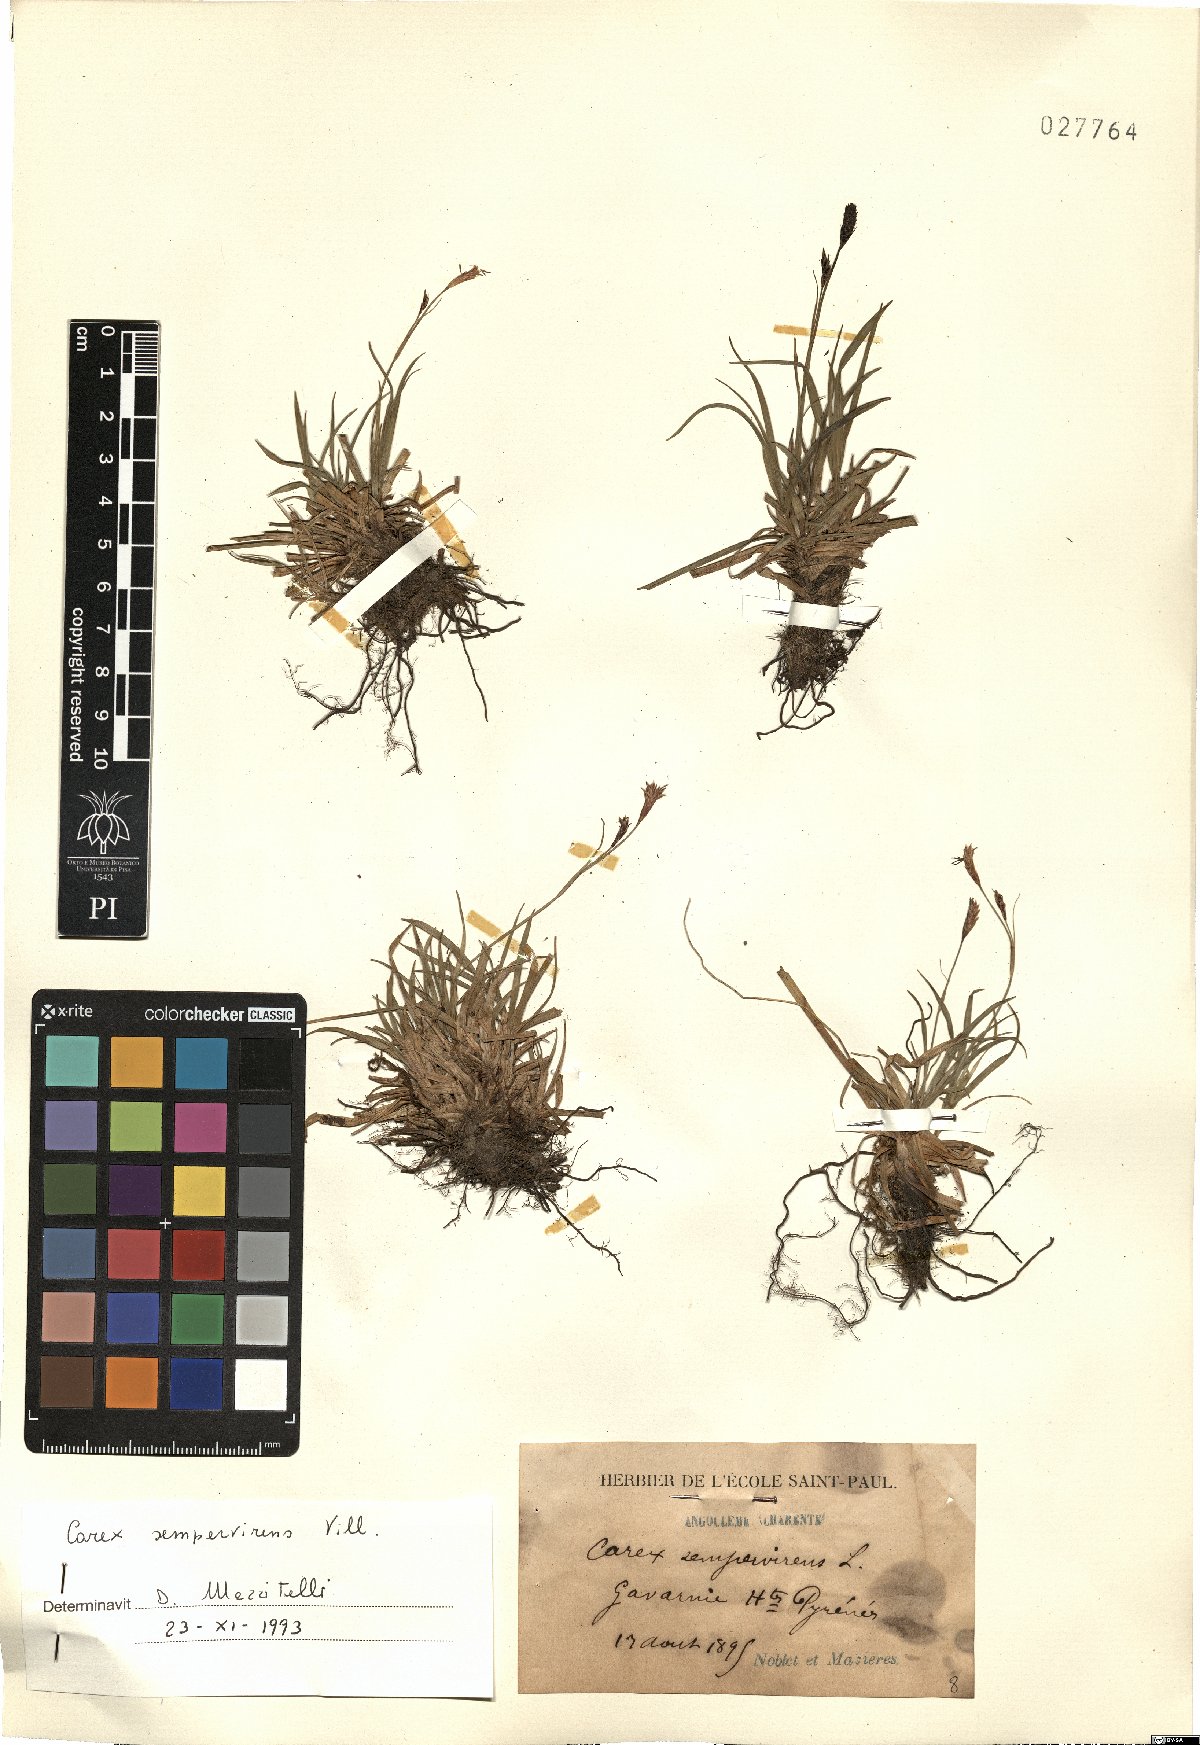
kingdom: Plantae
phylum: Tracheophyta
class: Liliopsida
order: Poales
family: Cyperaceae
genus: Carex
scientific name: Carex sempervirens
